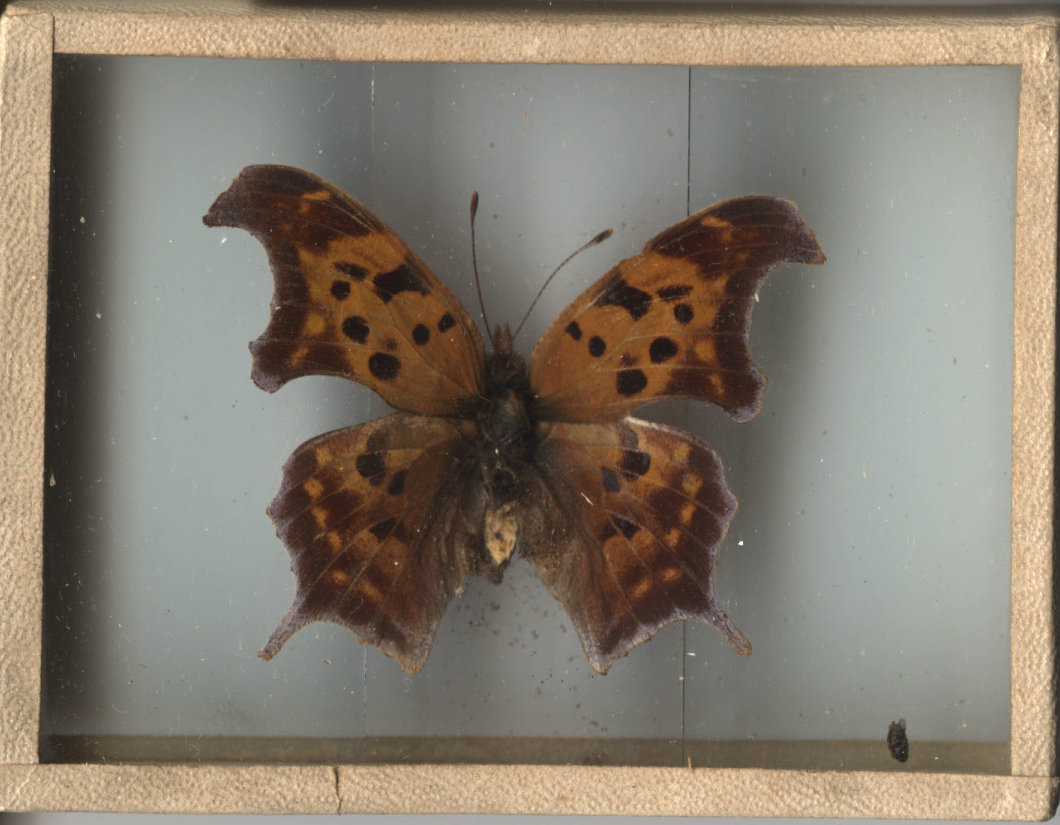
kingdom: Animalia
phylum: Arthropoda
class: Insecta
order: Lepidoptera
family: Nymphalidae
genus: Polygonia
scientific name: Polygonia interrogationis
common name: Question Mark
